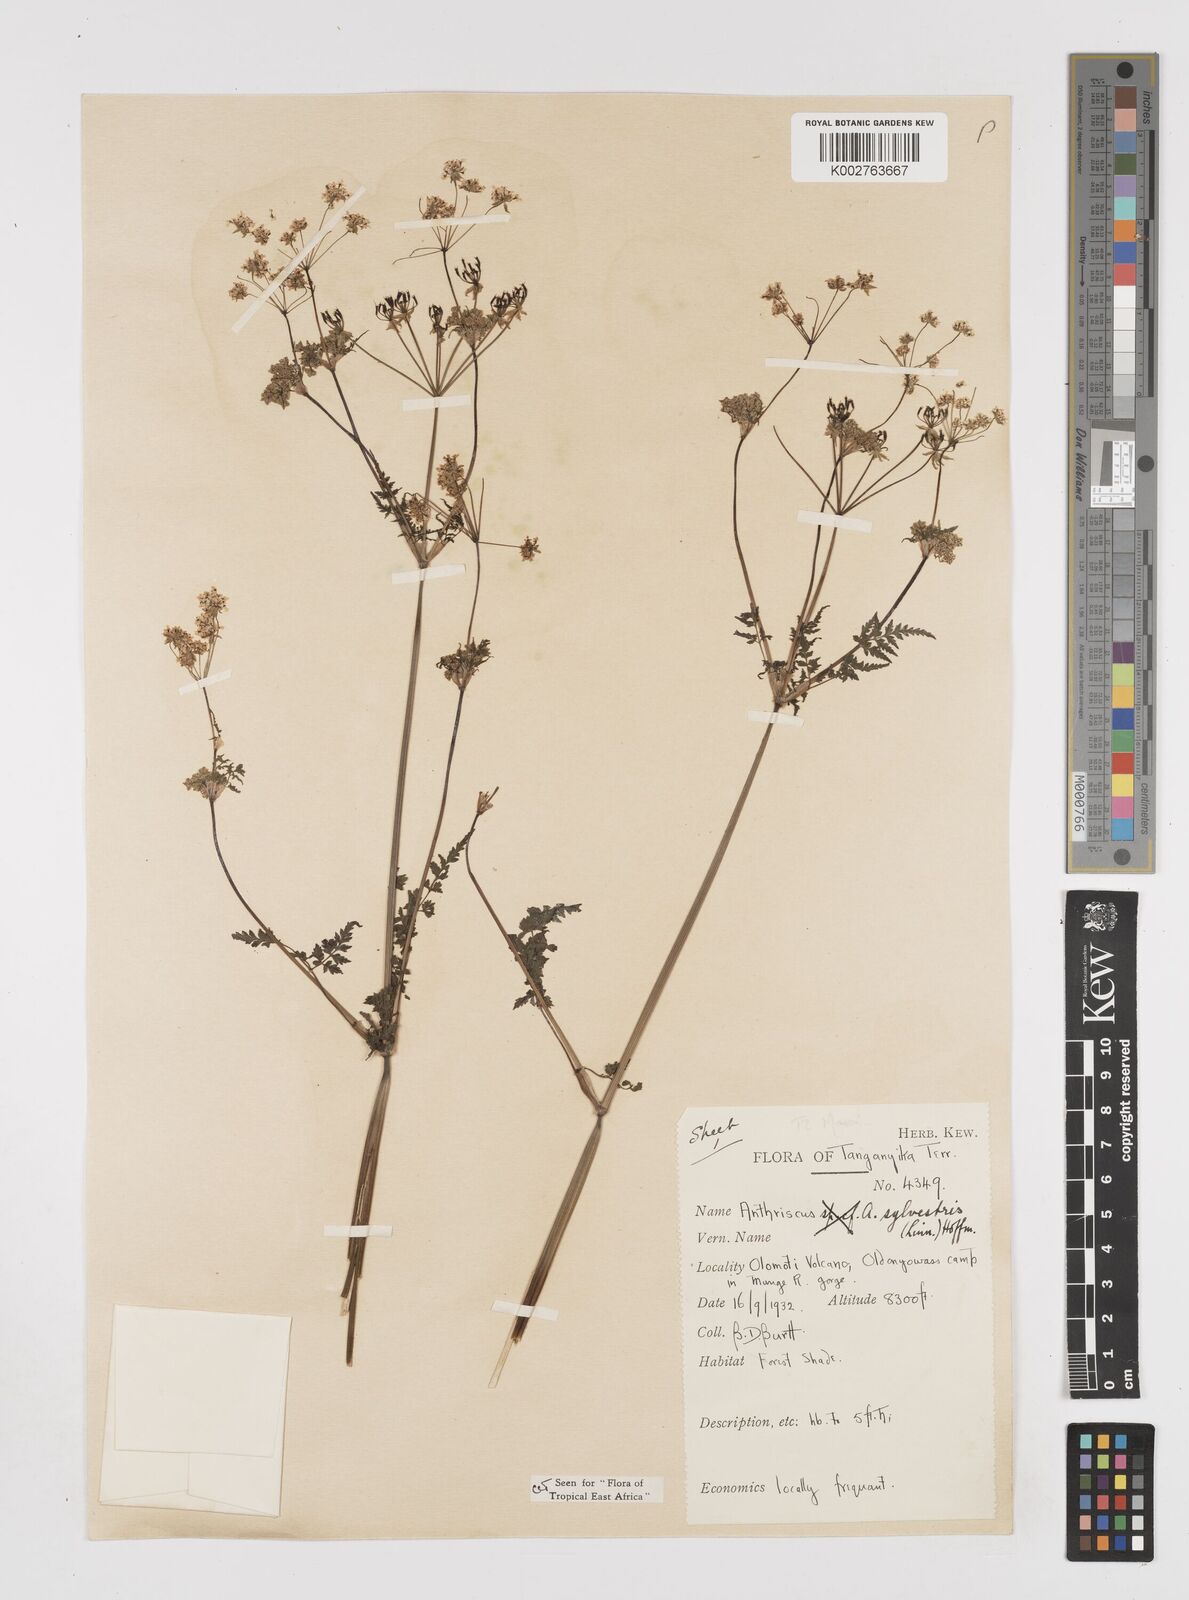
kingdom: Plantae
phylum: Tracheophyta
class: Magnoliopsida
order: Apiales
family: Apiaceae
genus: Anthriscus
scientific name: Anthriscus sylvestris
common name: Cow parsley
